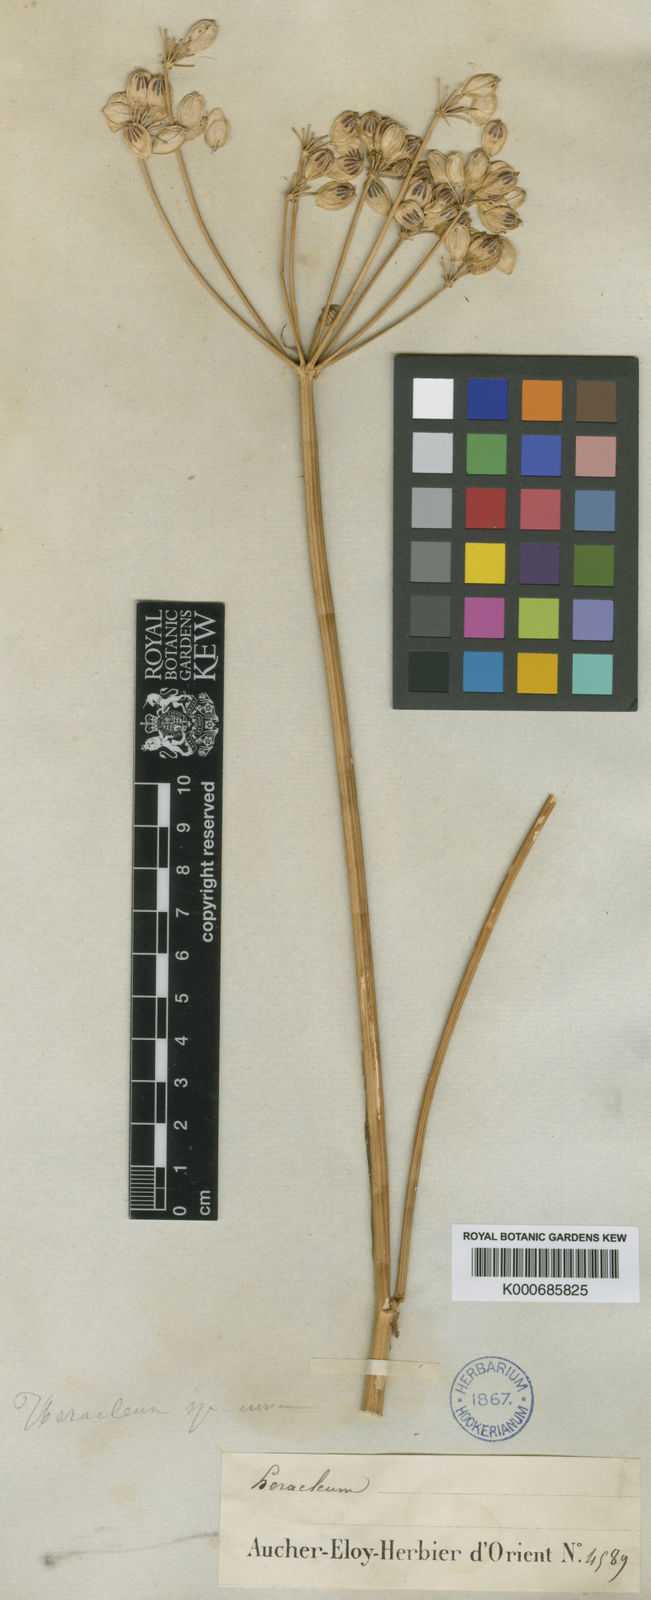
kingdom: Plantae
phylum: Tracheophyta
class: Magnoliopsida
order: Apiales
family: Apiaceae
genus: Heracleum
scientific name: Heracleum apiifolium
